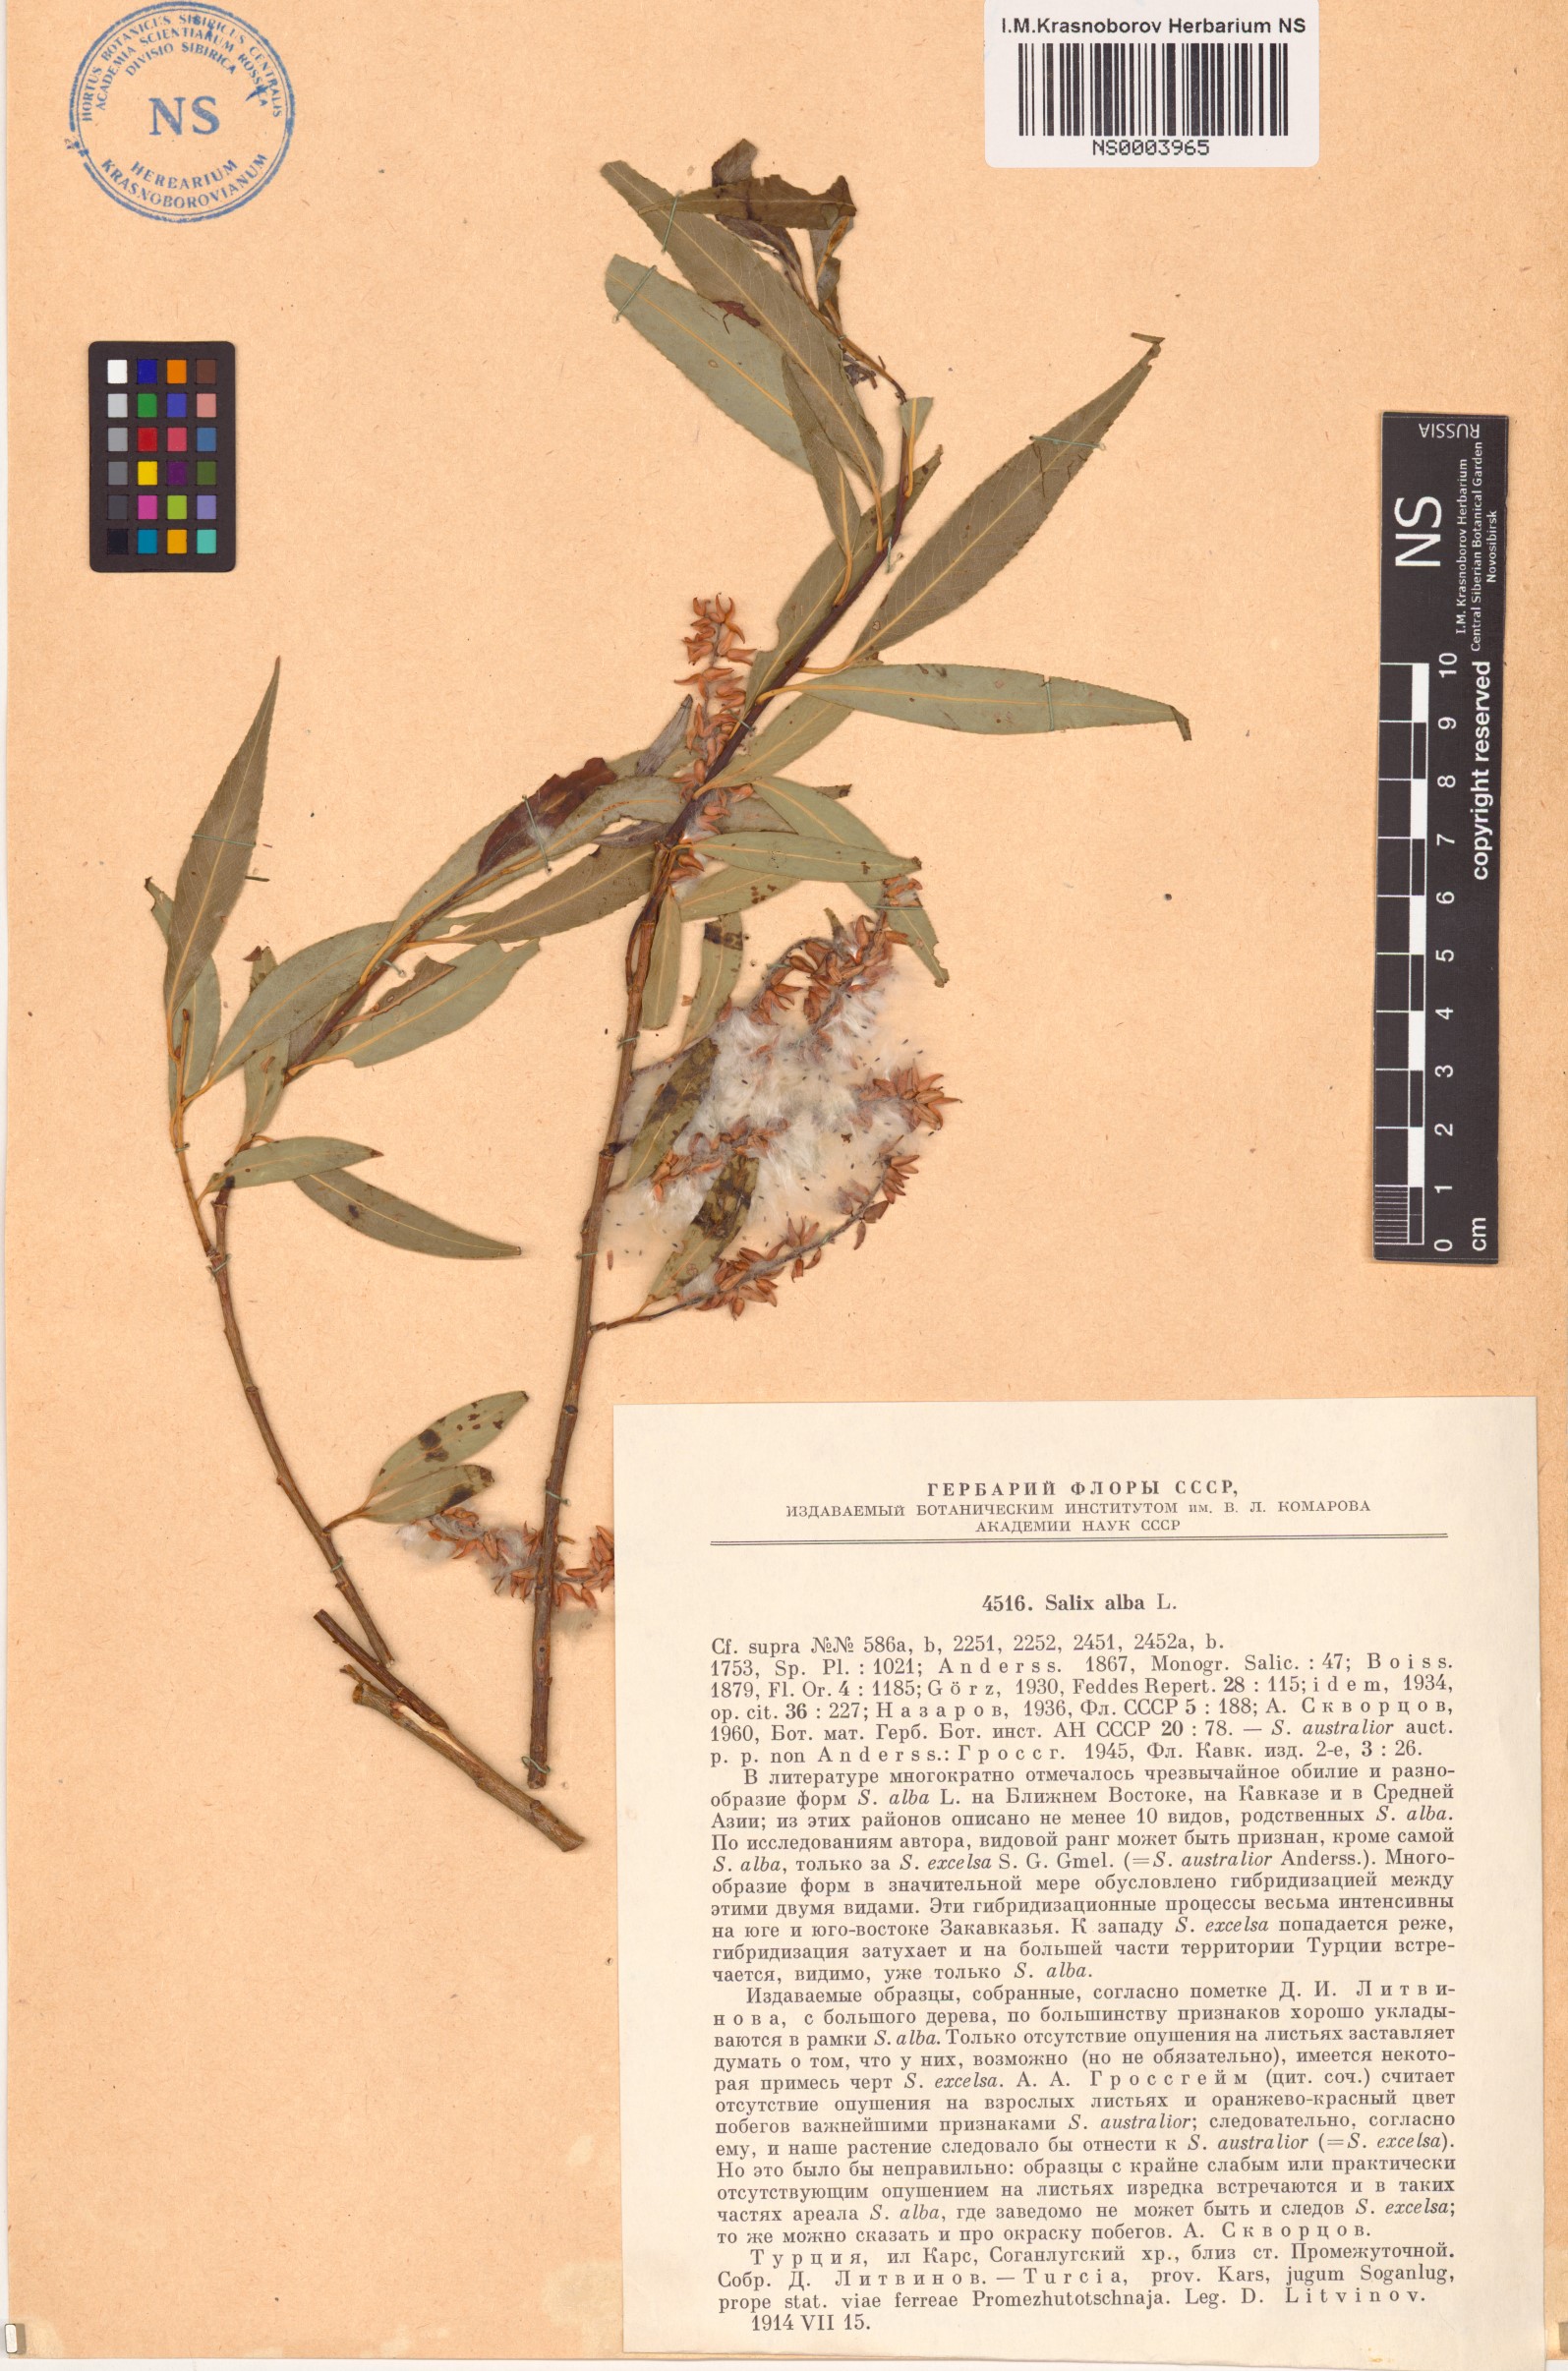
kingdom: Plantae
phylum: Tracheophyta
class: Magnoliopsida
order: Malpighiales
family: Salicaceae
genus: Salix
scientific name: Salix alba
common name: White willow
